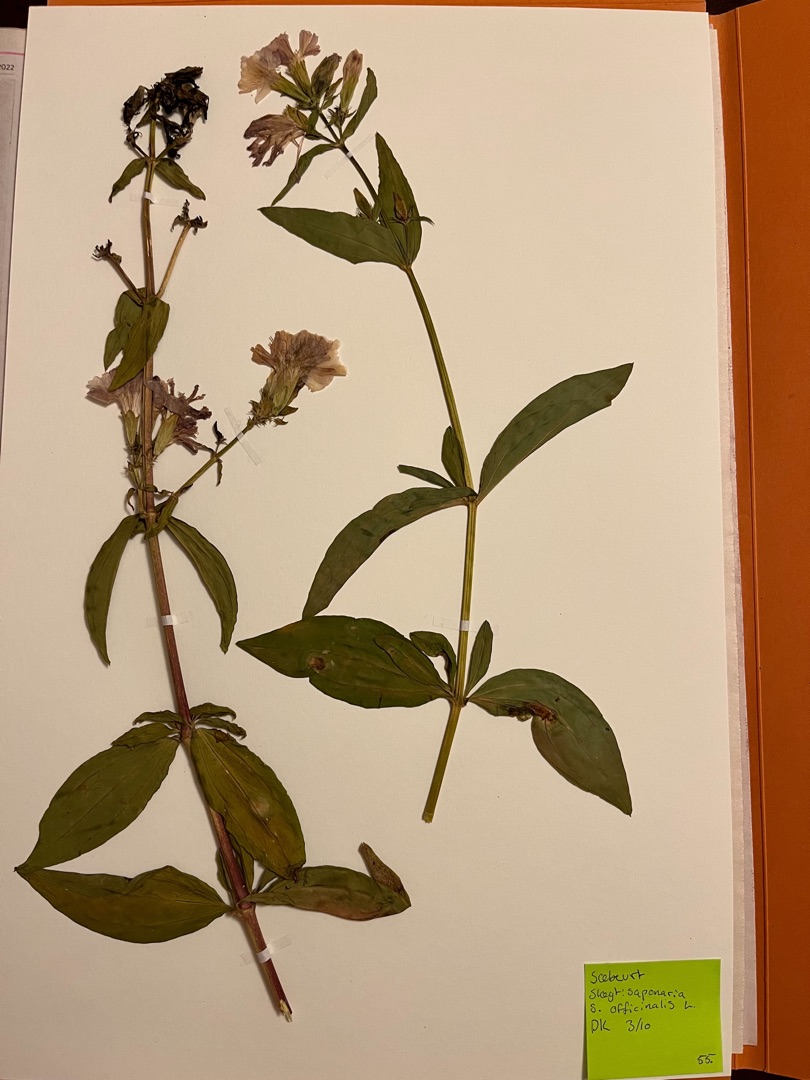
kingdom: Plantae
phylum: Tracheophyta
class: Magnoliopsida
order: Caryophyllales
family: Caryophyllaceae
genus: Saponaria
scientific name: Saponaria officinalis
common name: Sæbeurt
